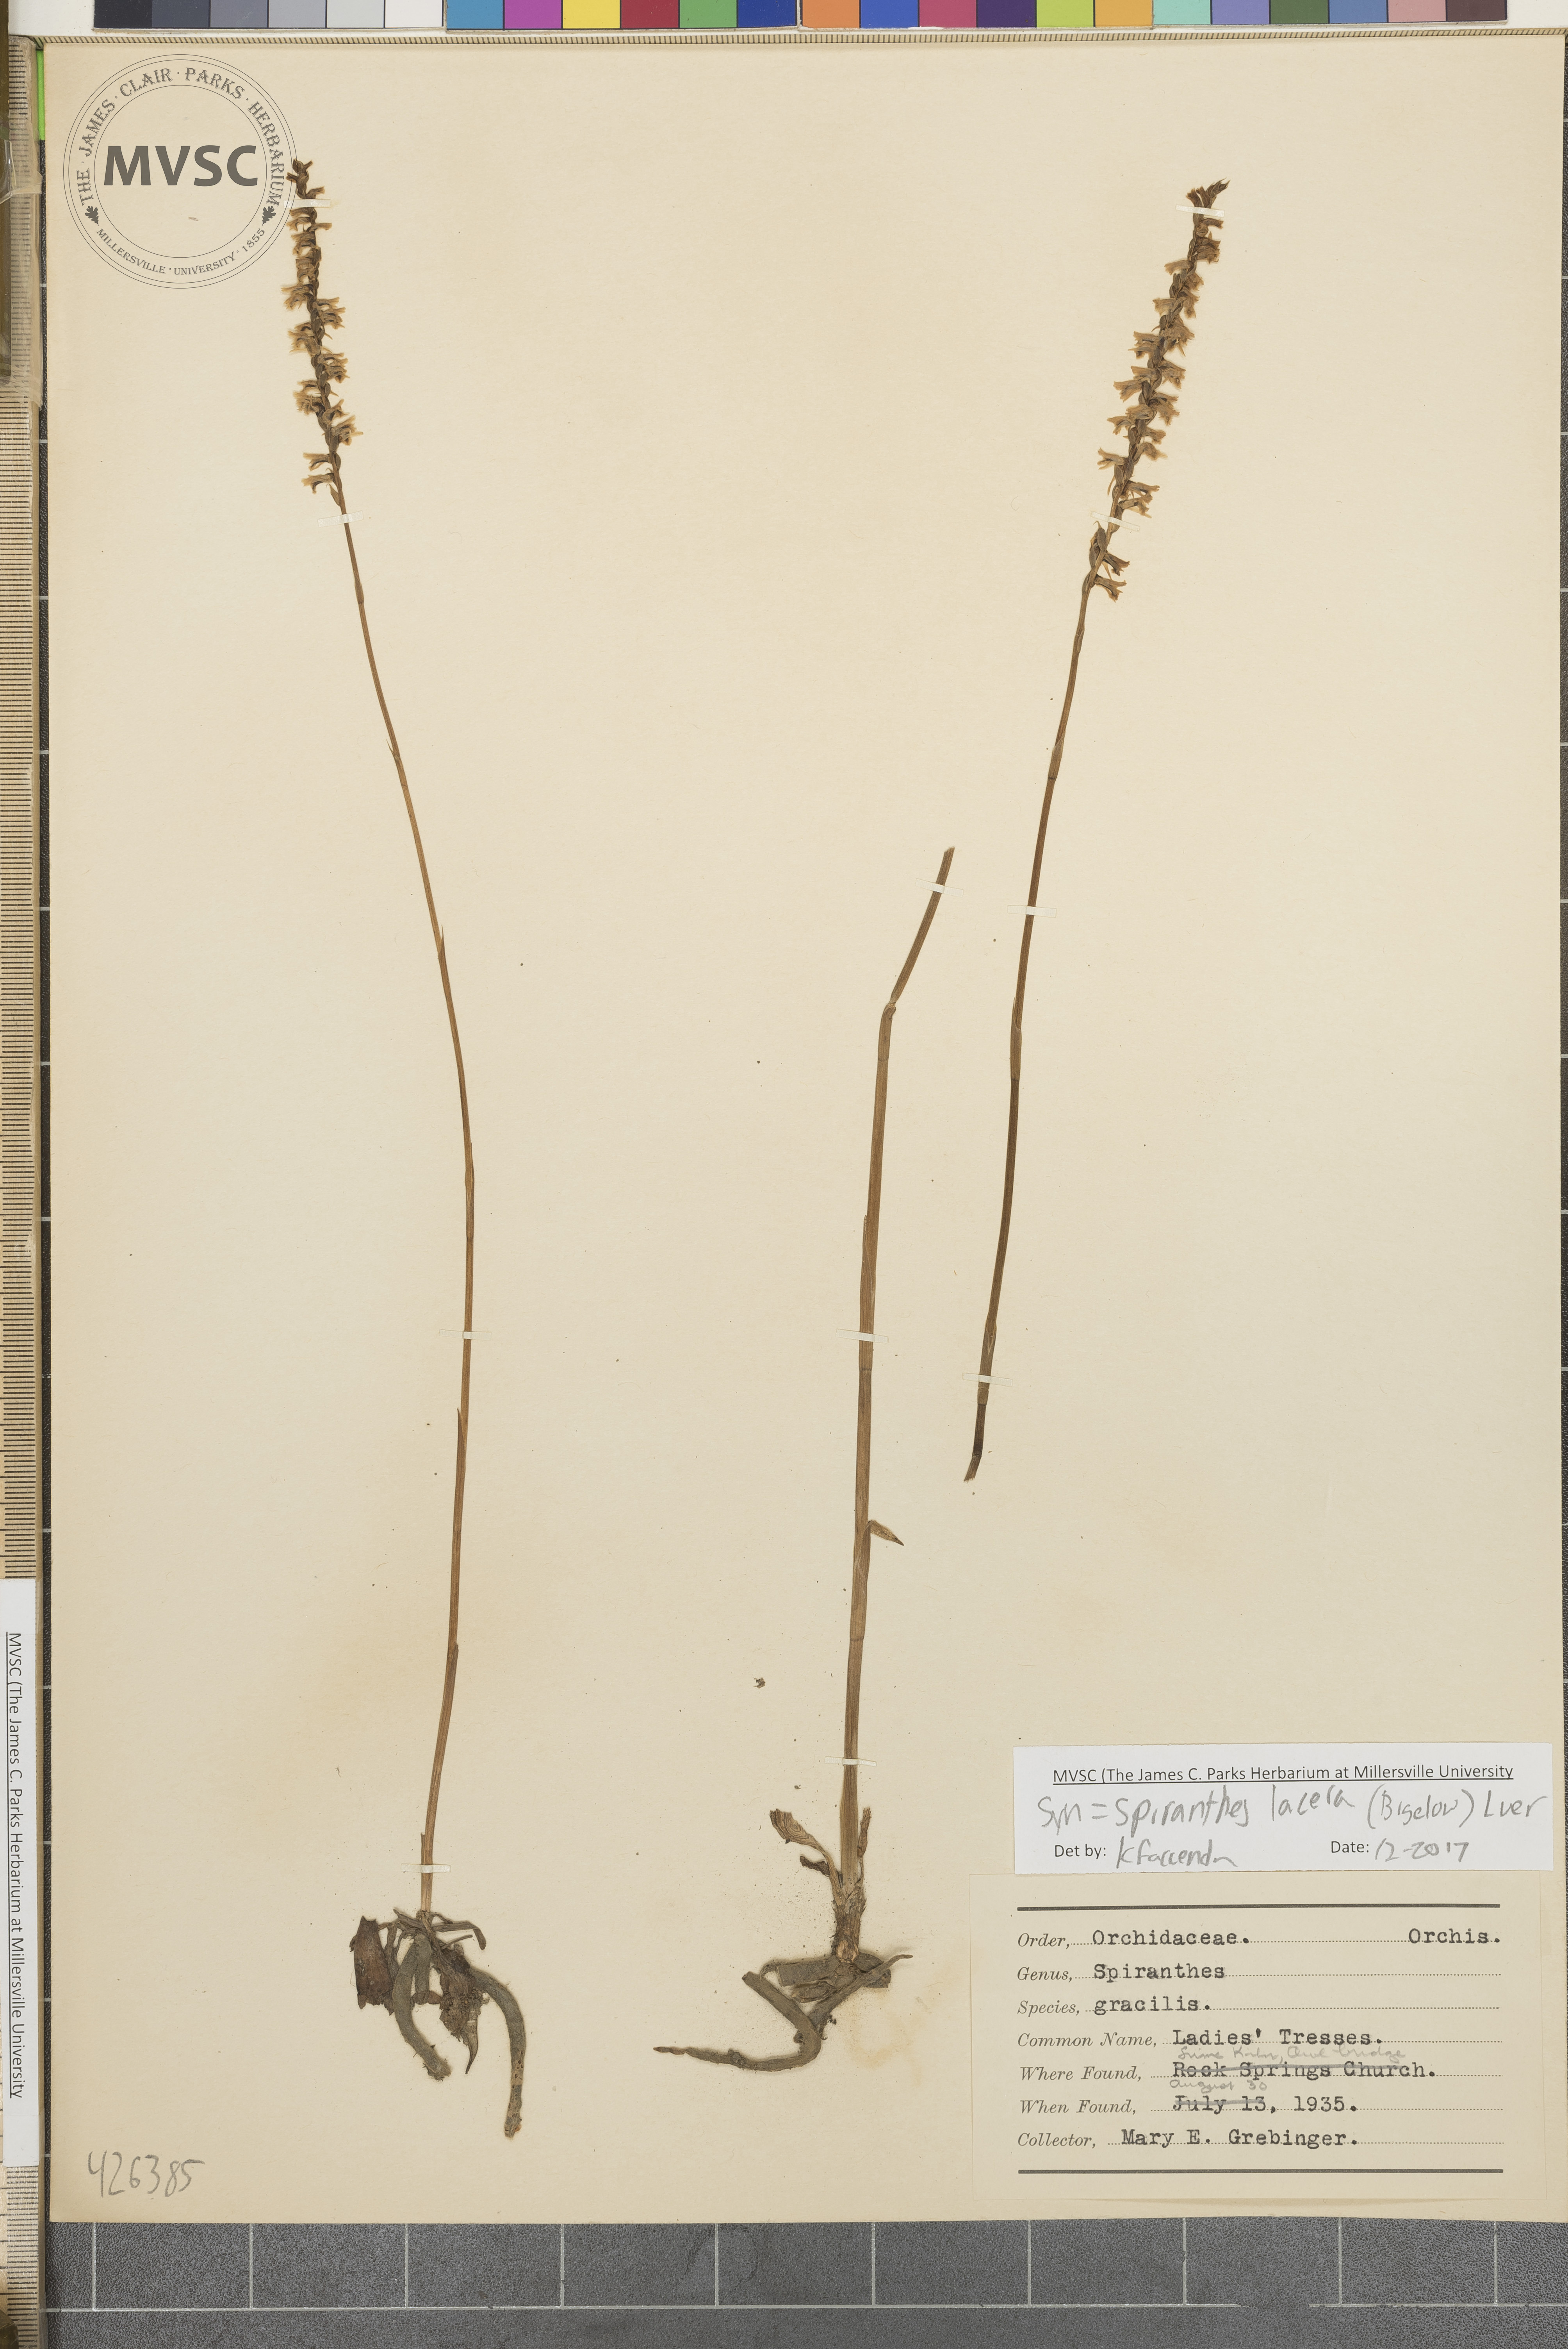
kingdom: Plantae
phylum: Tracheophyta
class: Liliopsida
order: Asparagales
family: Orchidaceae
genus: Spiranthes
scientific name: Spiranthes lacera
